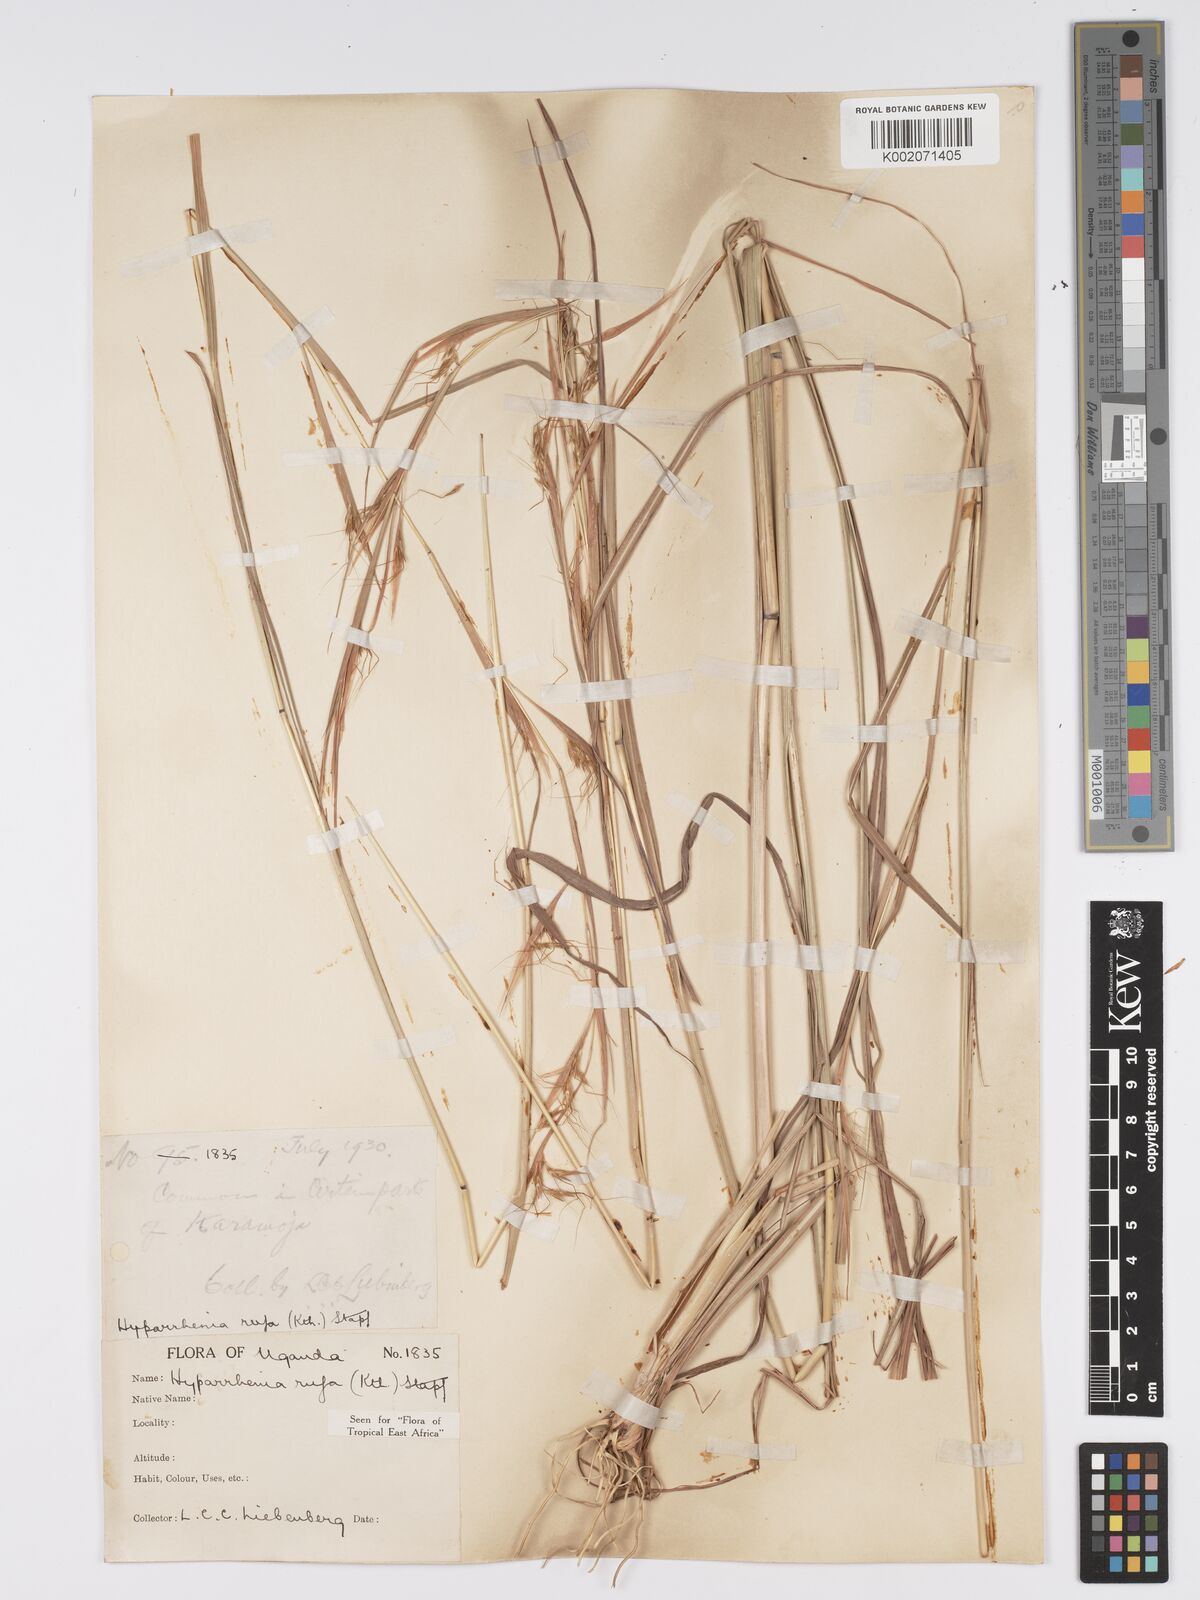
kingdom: Plantae
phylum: Tracheophyta
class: Liliopsida
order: Poales
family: Poaceae
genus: Hyparrhenia
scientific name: Hyparrhenia rufa
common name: Jaraguagrass
